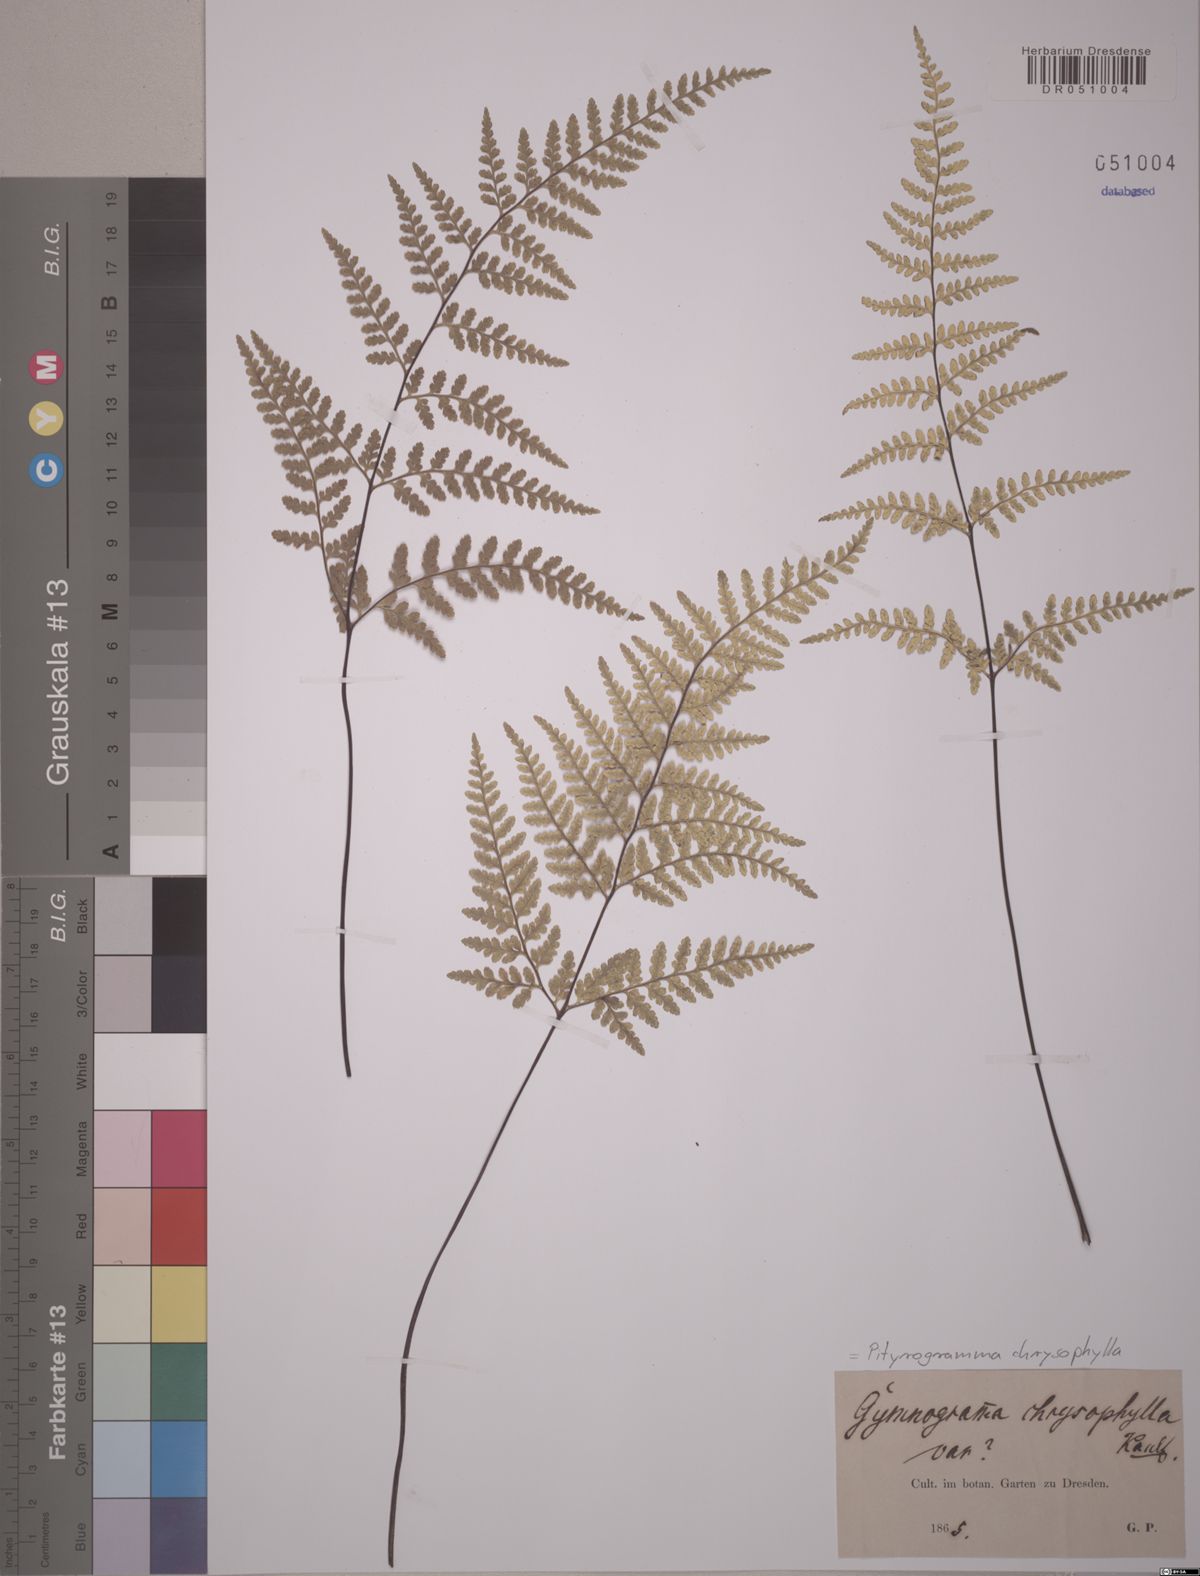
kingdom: Plantae
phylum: Tracheophyta
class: Polypodiopsida
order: Polypodiales
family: Pteridaceae
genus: Pityrogramma
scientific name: Pityrogramma chrysophylla
